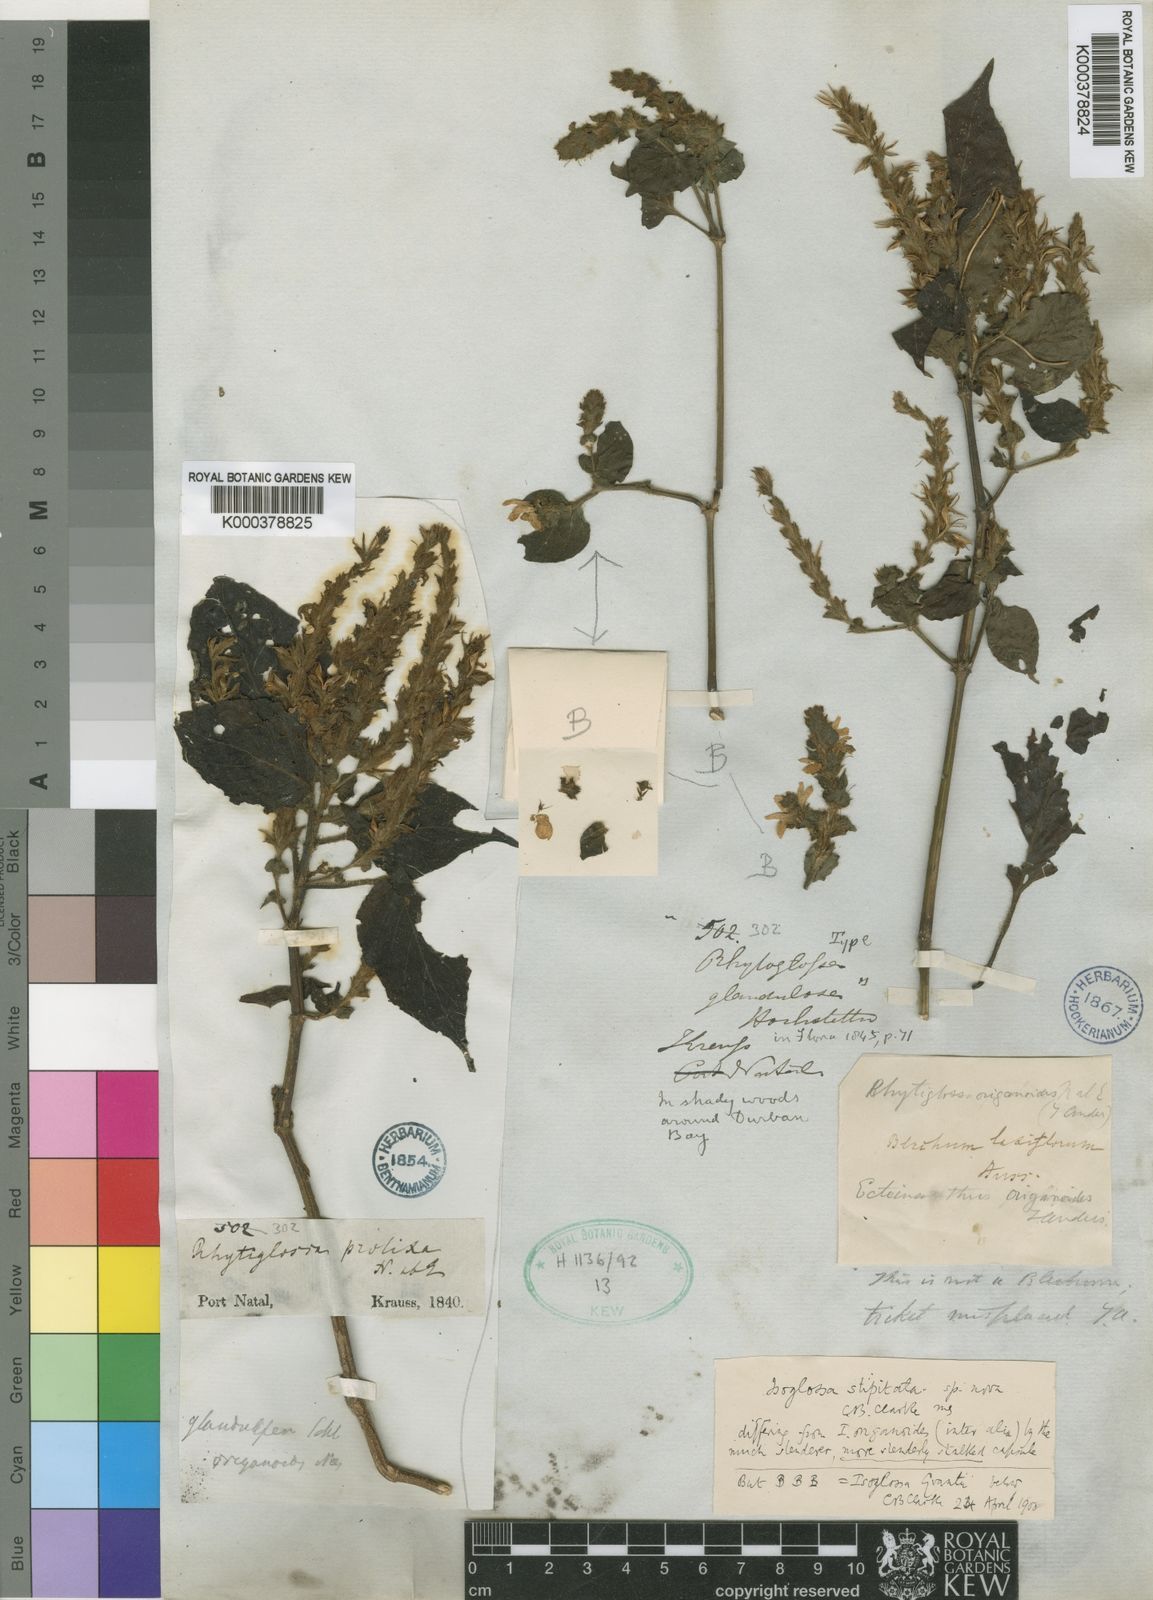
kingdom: Plantae
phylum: Tracheophyta
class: Magnoliopsida
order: Lamiales
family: Acanthaceae
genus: Isoglossa
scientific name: Isoglossa woodii
